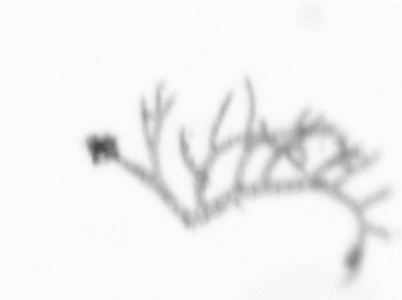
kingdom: Chromista
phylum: Ochrophyta
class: Bacillariophyceae
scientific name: Bacillariophyceae
